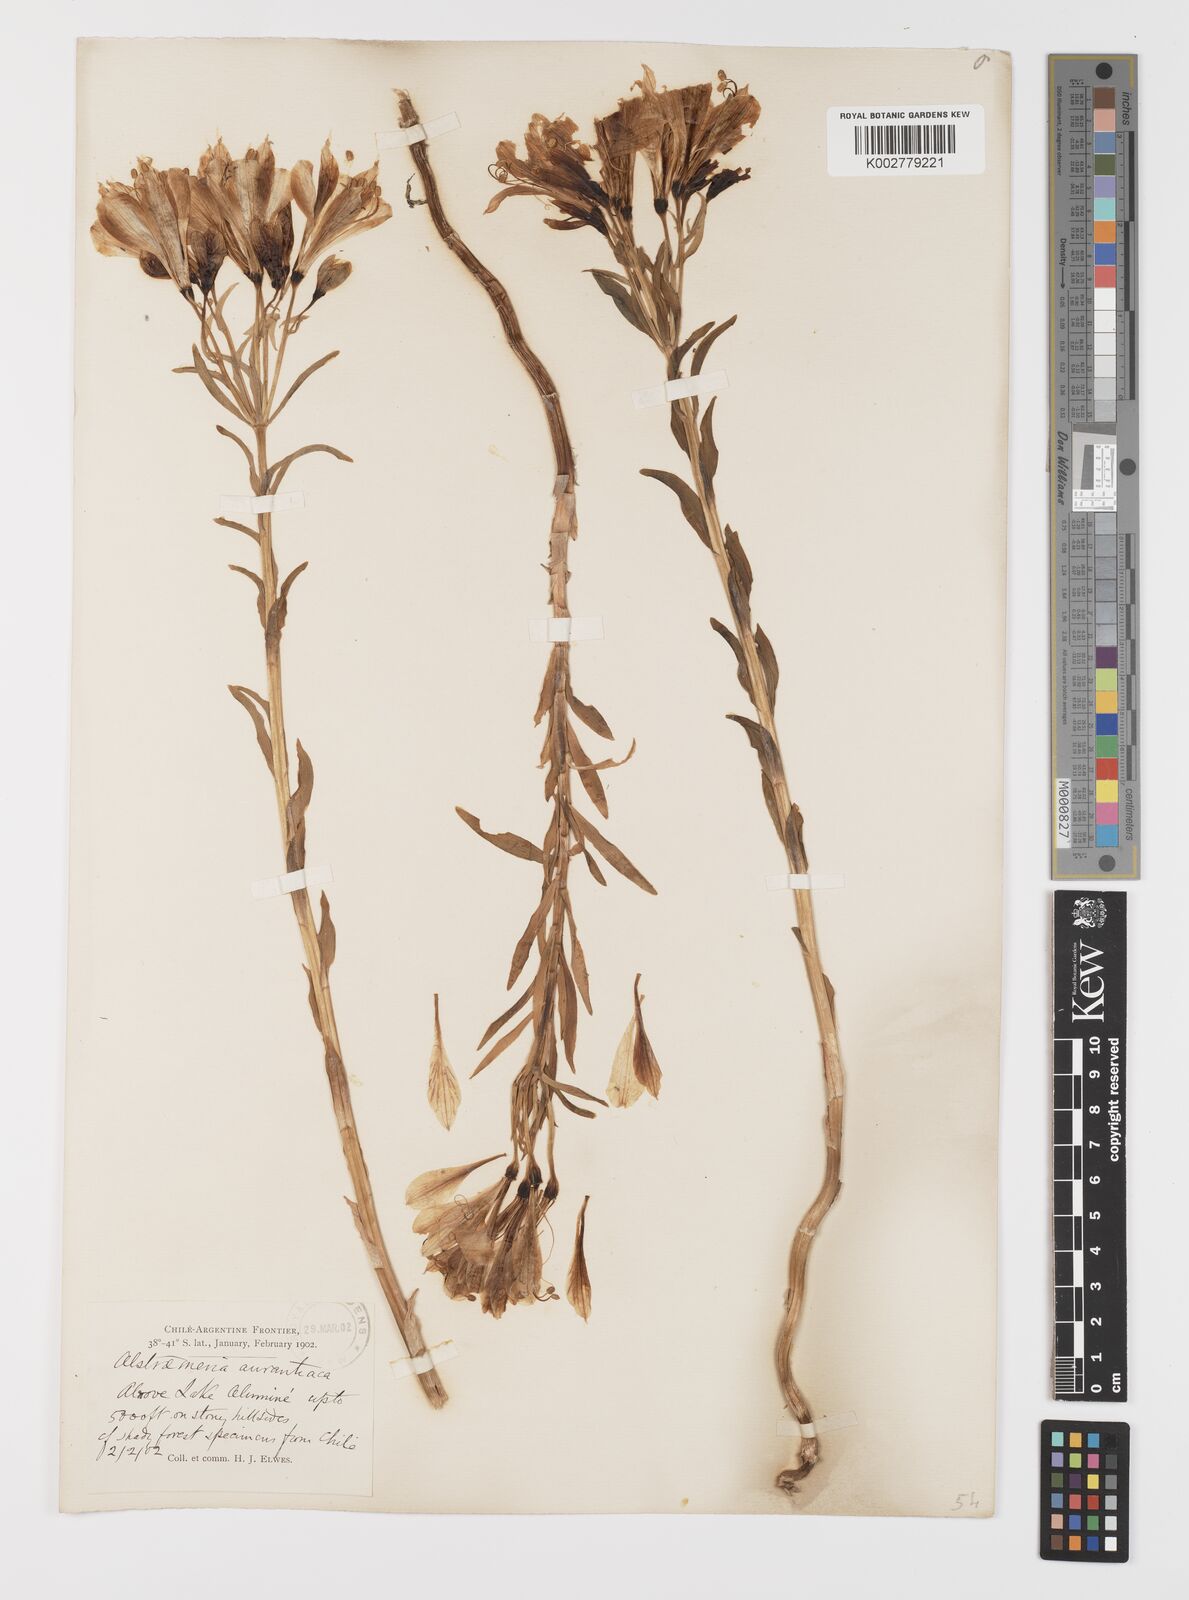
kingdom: Plantae
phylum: Tracheophyta
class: Liliopsida
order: Liliales
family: Alstroemeriaceae
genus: Alstroemeria
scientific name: Alstroemeria aurea
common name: Peruvian lily
